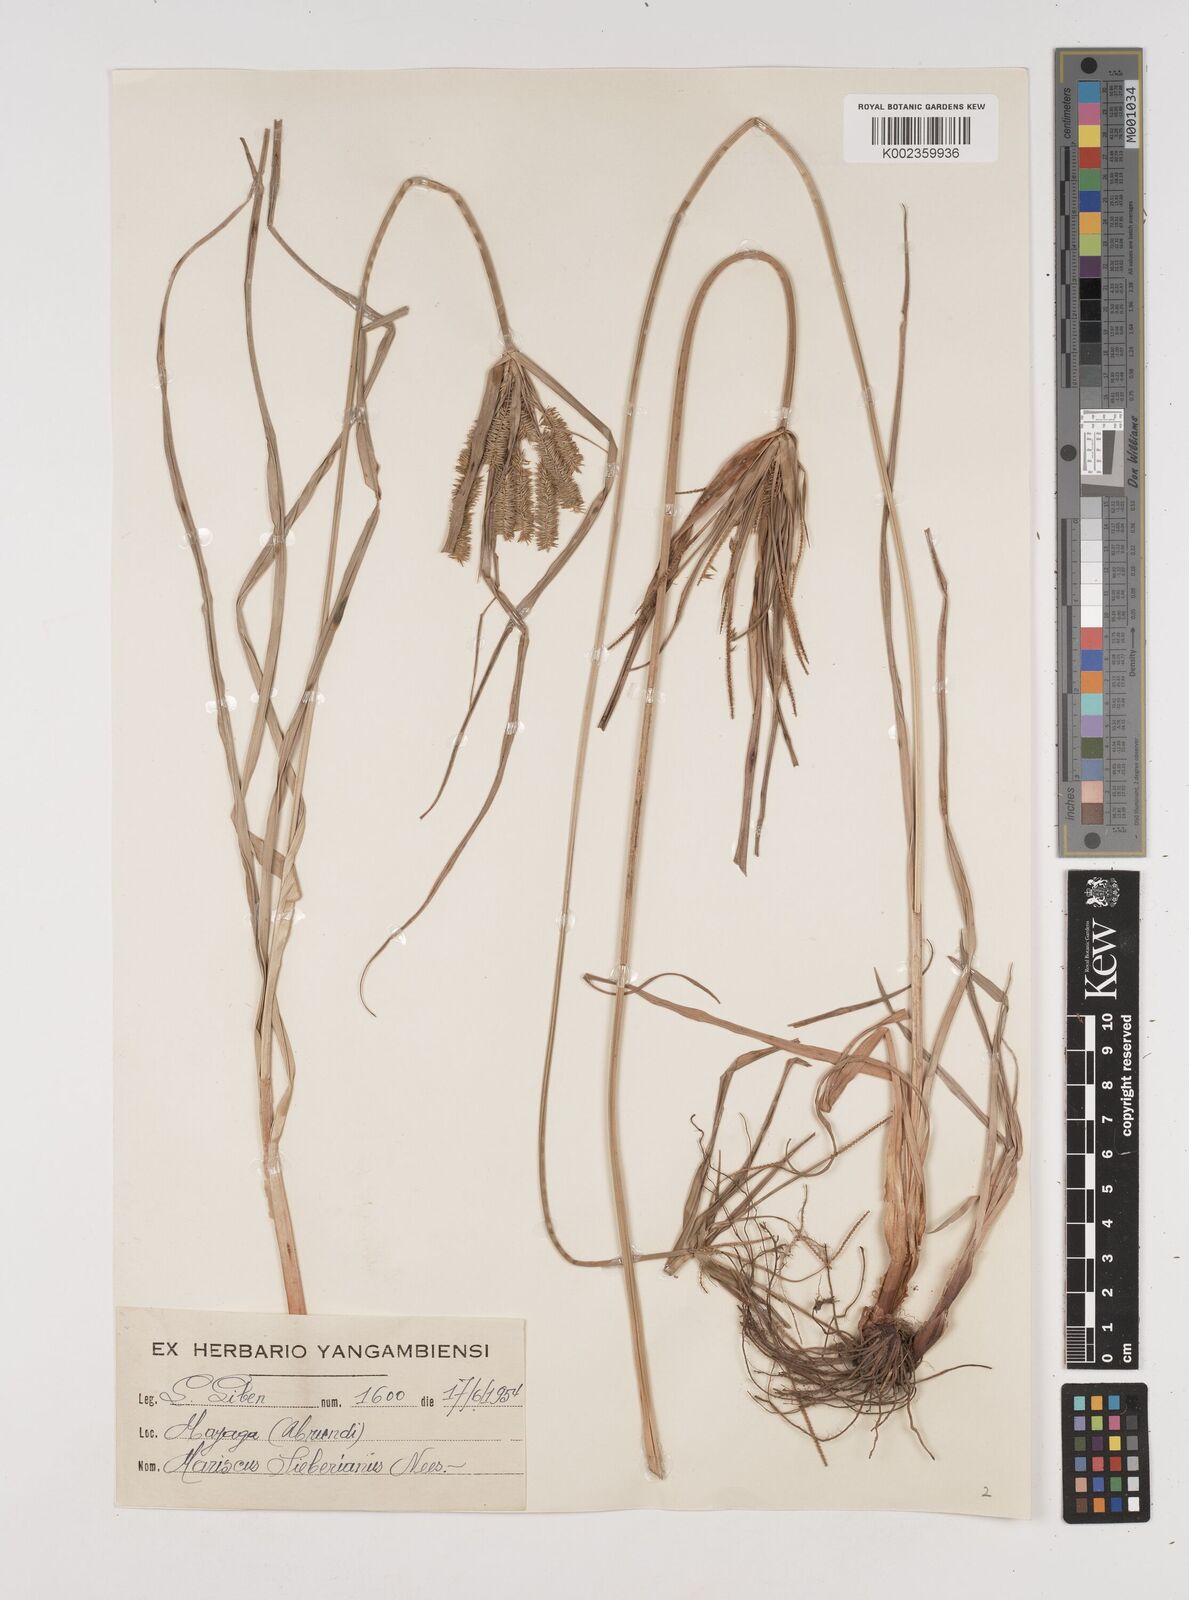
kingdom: Plantae
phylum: Tracheophyta
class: Liliopsida
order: Poales
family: Cyperaceae
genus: Cyperus
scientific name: Cyperus cyperoides
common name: Pacific island flat sedge
